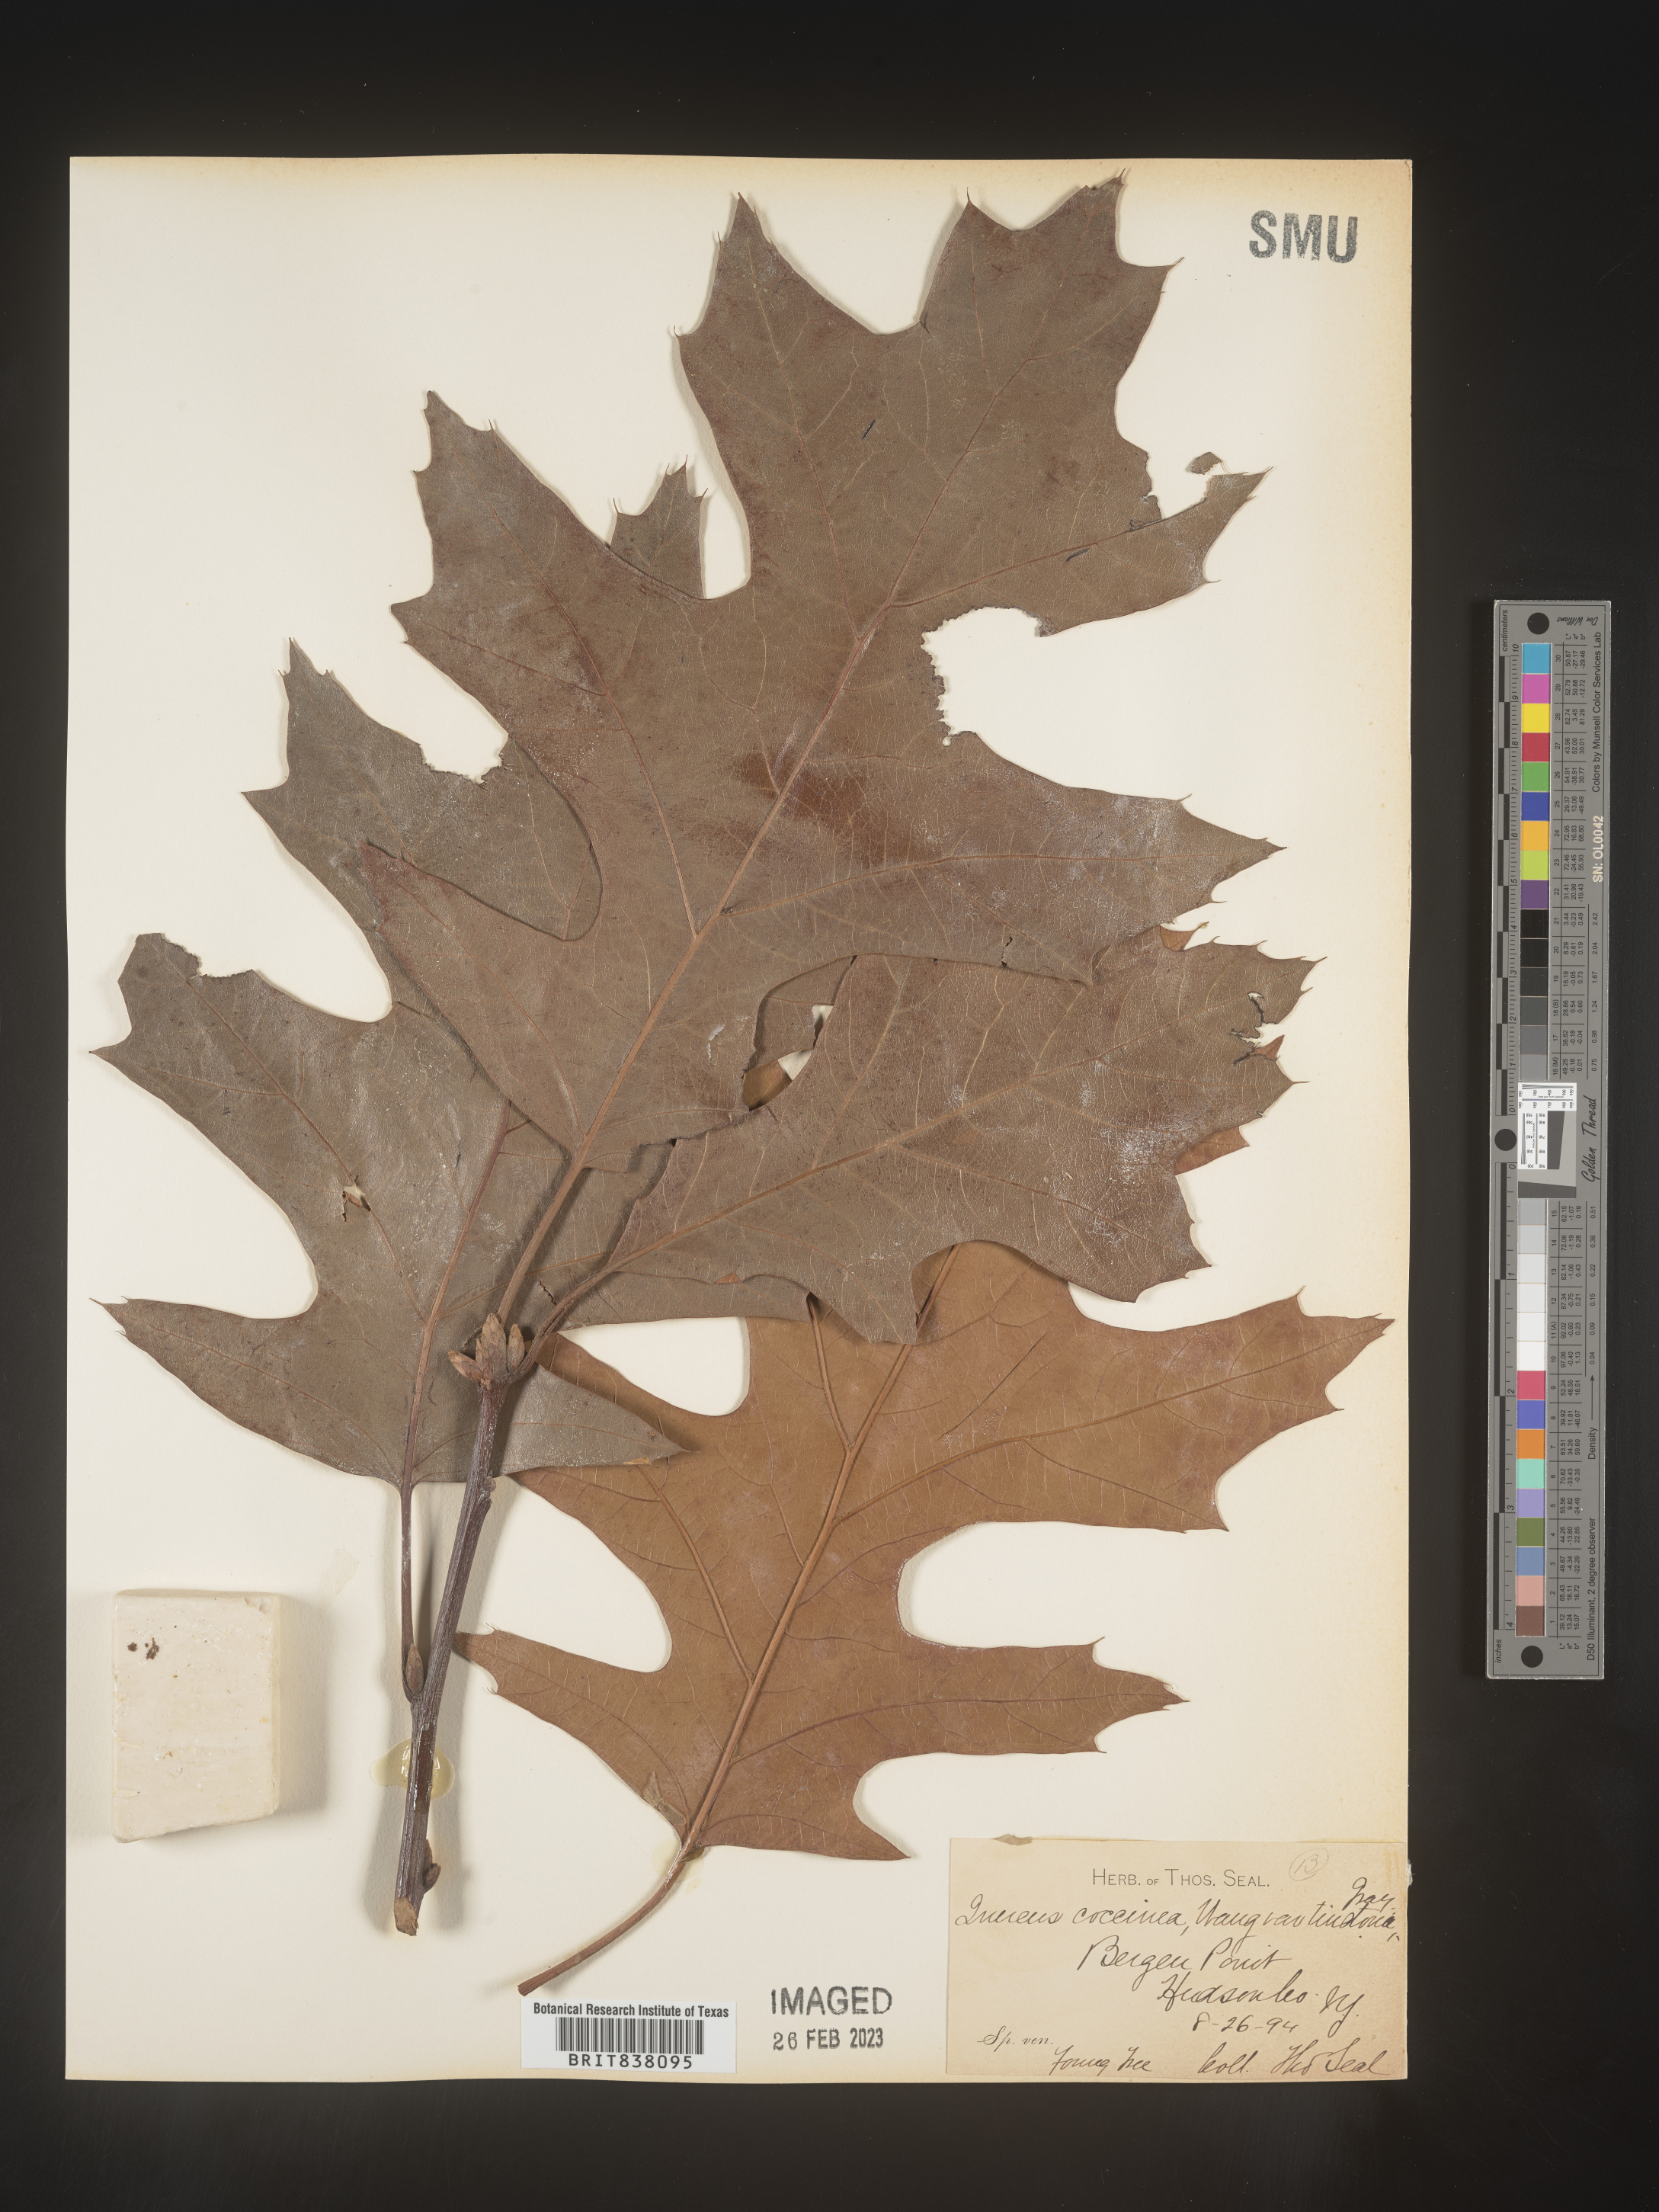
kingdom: Plantae
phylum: Tracheophyta
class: Magnoliopsida
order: Fagales
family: Fagaceae
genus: Quercus
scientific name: Quercus coccinea
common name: Scarlet oak
